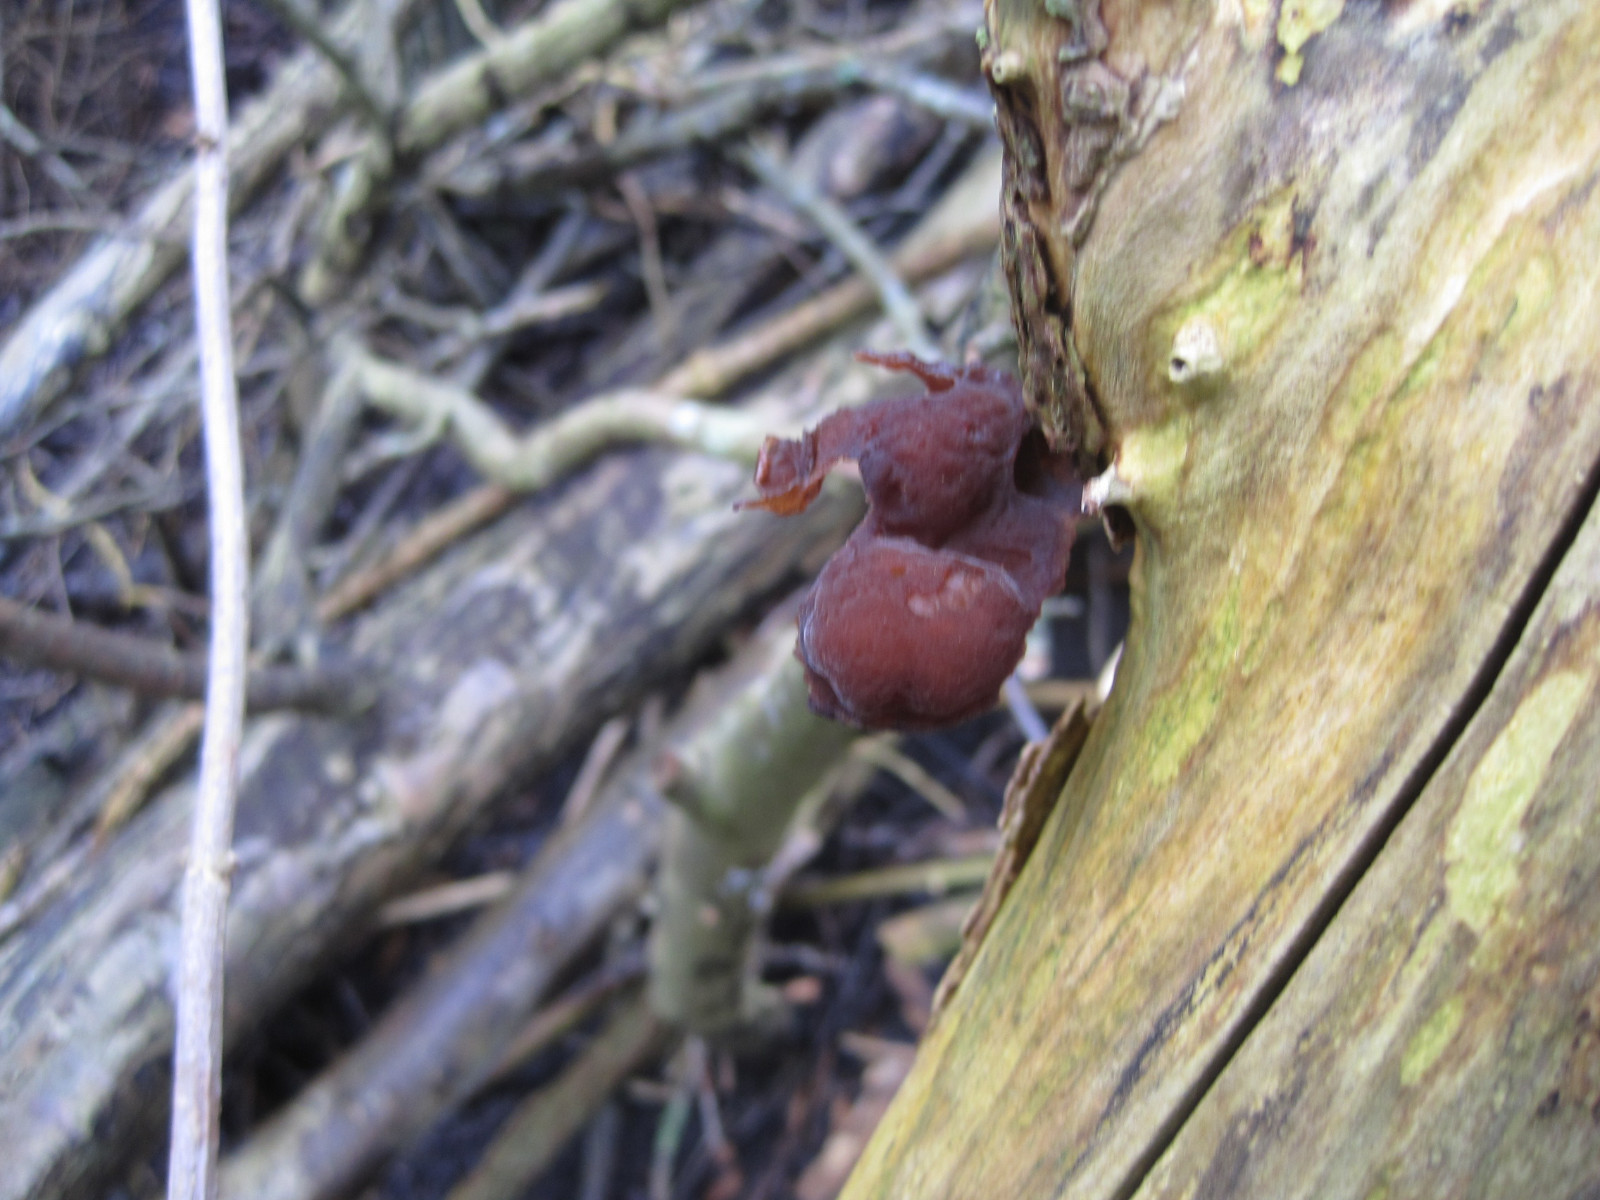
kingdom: Fungi
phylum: Basidiomycota
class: Agaricomycetes
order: Auriculariales
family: Auriculariaceae
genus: Auricularia
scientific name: Auricularia auricula-judae
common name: almindelig judasøre
